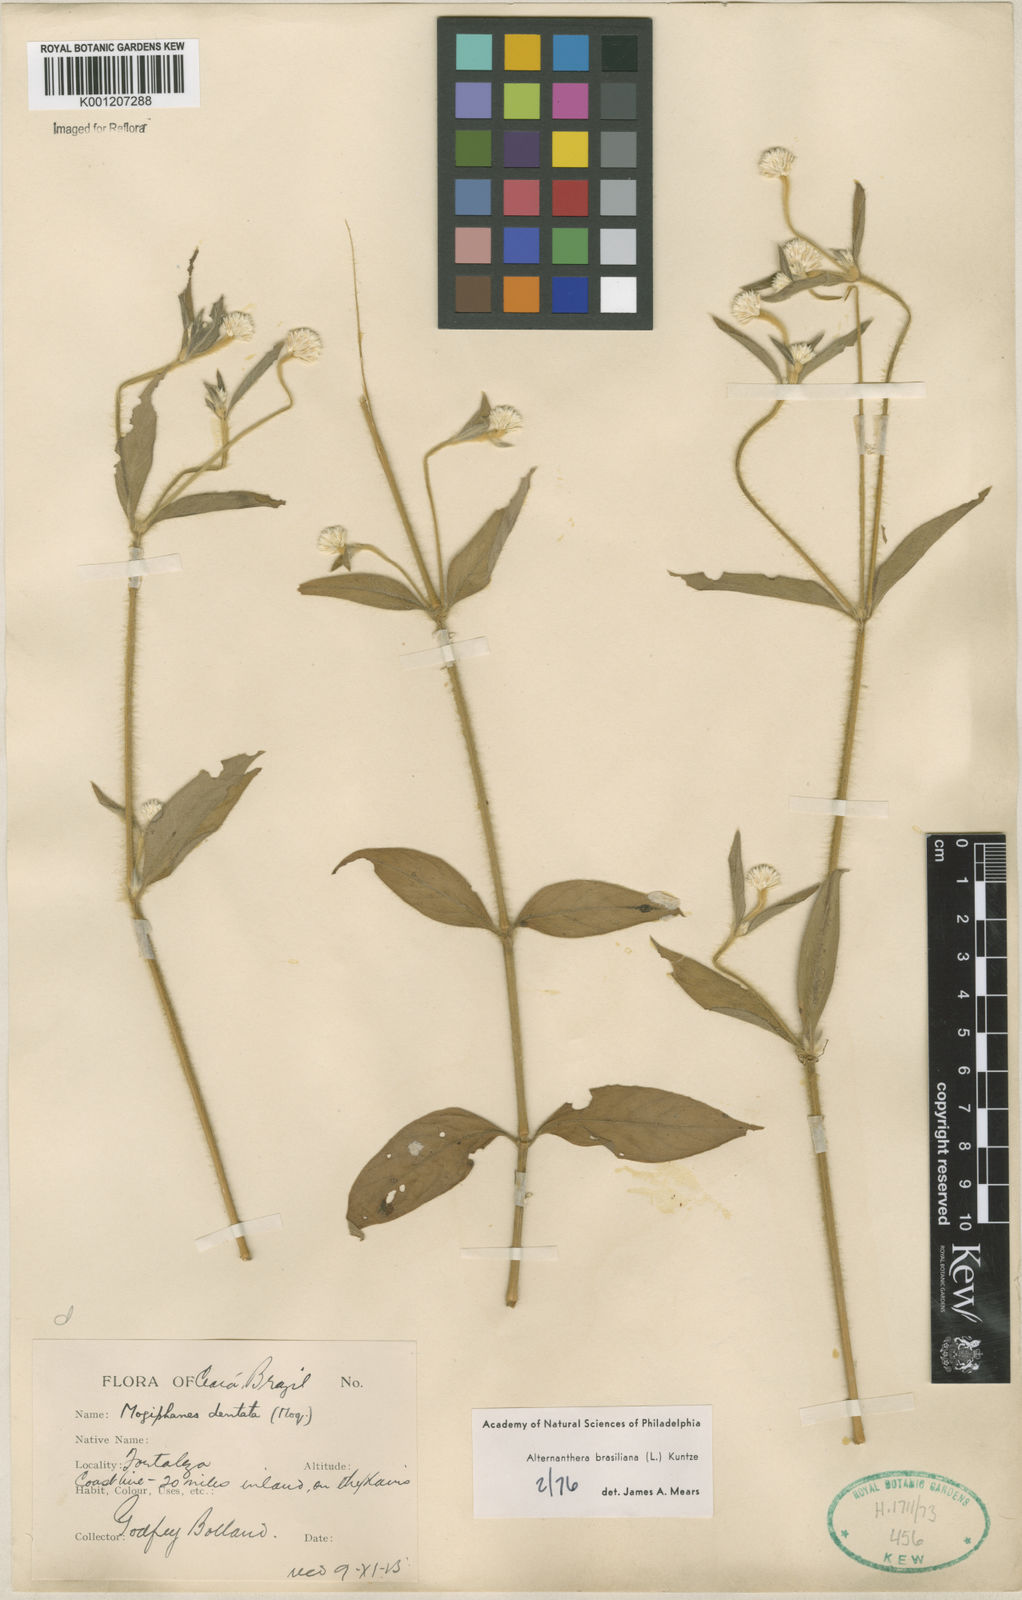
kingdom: Plantae
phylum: Tracheophyta
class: Magnoliopsida
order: Caryophyllales
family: Amaranthaceae
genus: Alternanthera
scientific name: Alternanthera brasiliana
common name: Brazilian joyweed
